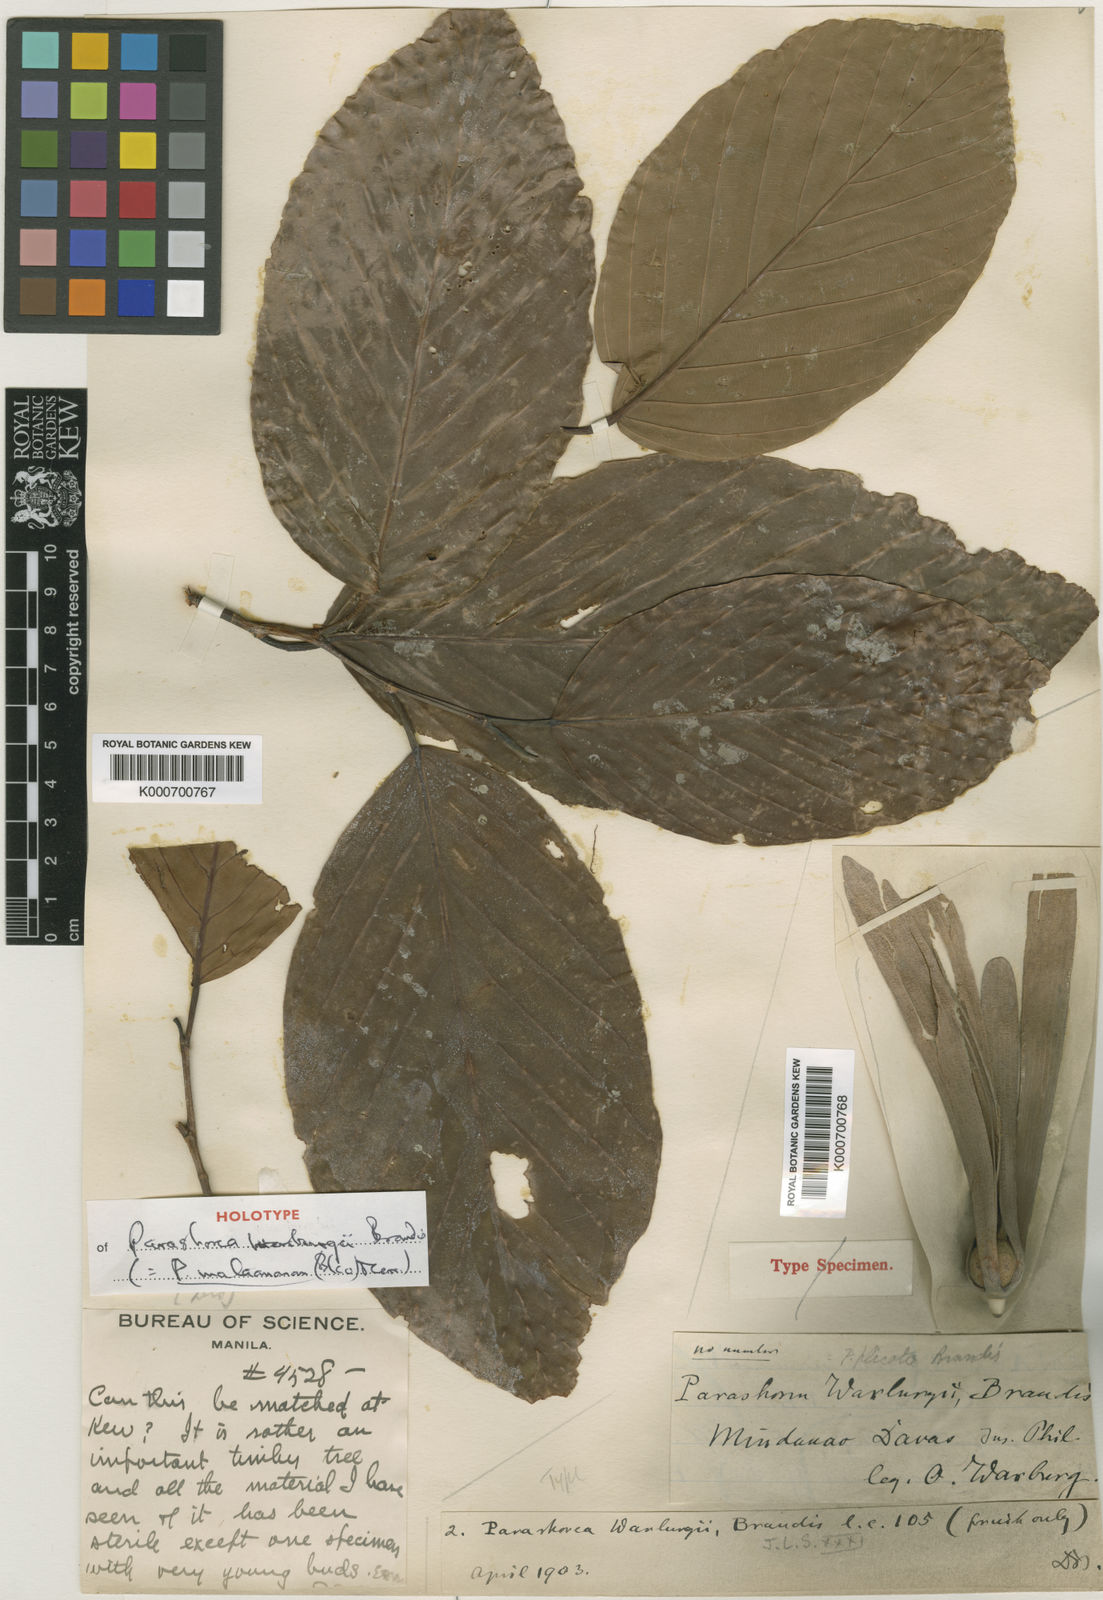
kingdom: Plantae
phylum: Tracheophyta
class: Magnoliopsida
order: Malvales
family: Dipterocarpaceae
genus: Parashorea
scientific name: Parashorea malaanonan
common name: White lauan
